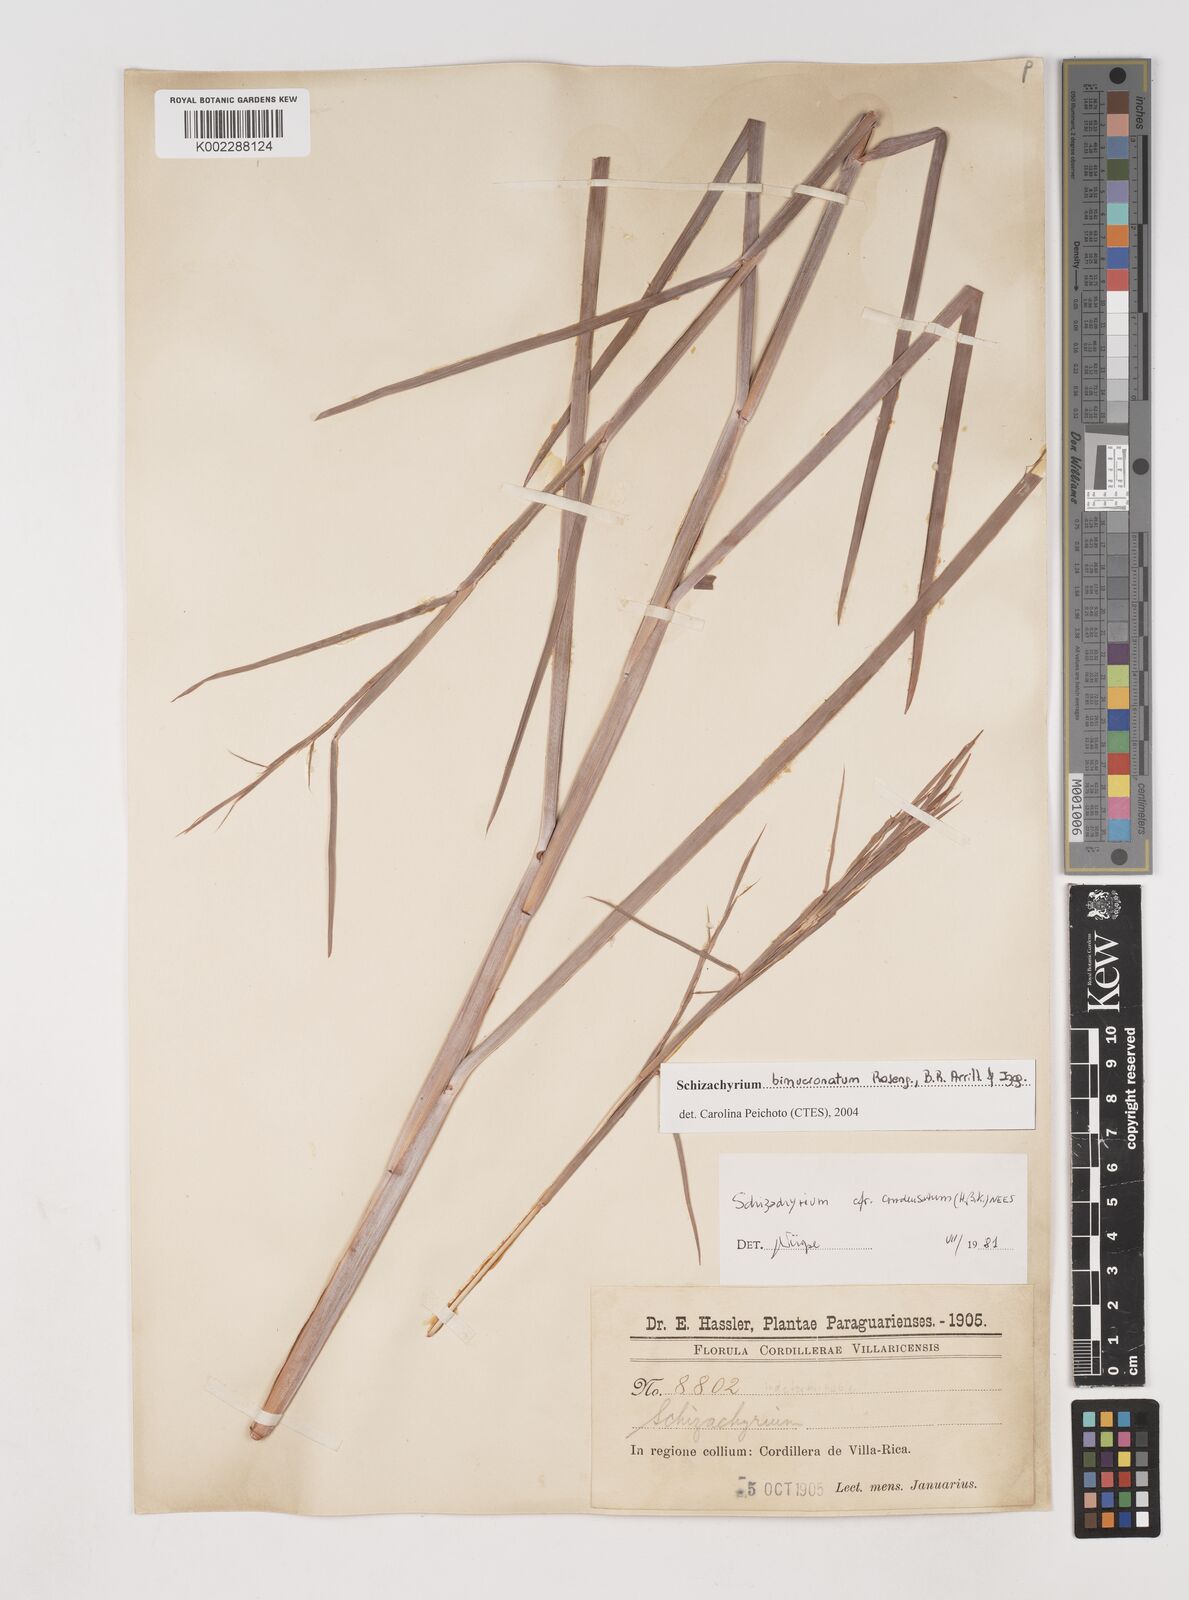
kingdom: Plantae
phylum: Tracheophyta
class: Liliopsida
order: Poales
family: Poaceae
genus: Schizachyrium
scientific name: Schizachyrium condensatum
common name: Bush beardgrass
